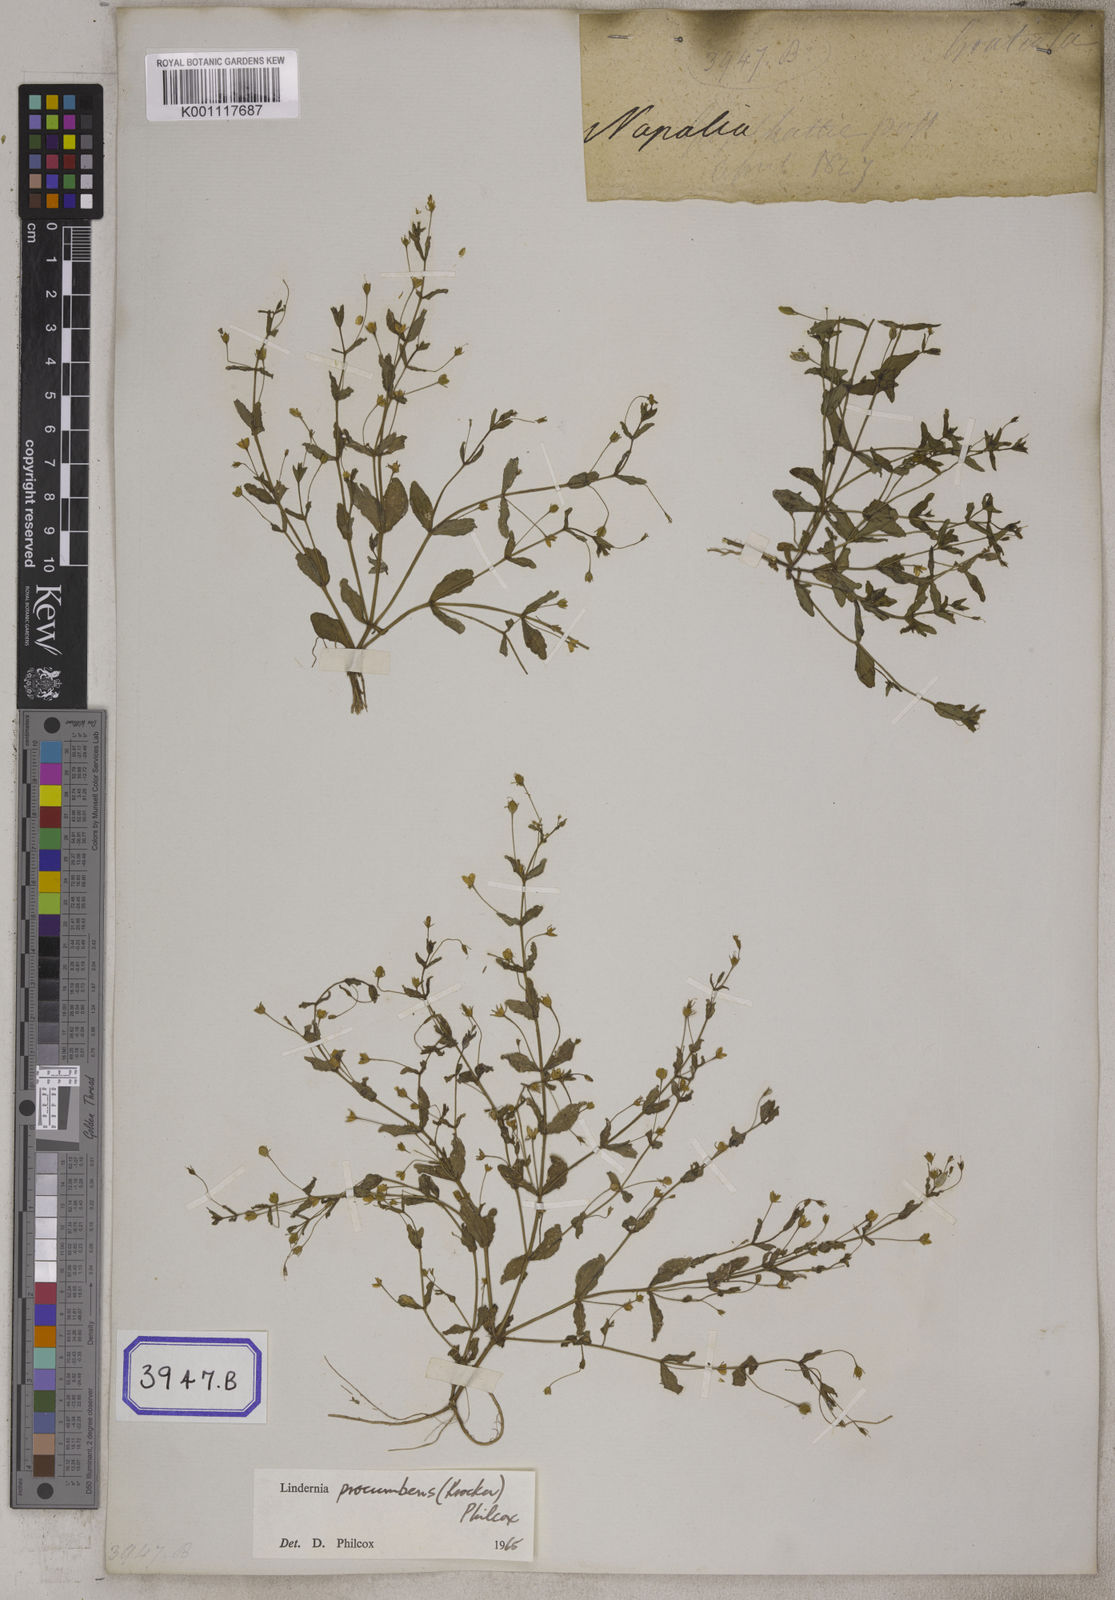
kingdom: Plantae
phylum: Tracheophyta
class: Magnoliopsida
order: Lamiales
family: Linderniaceae
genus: Lindernia
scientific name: Lindernia procumbens
